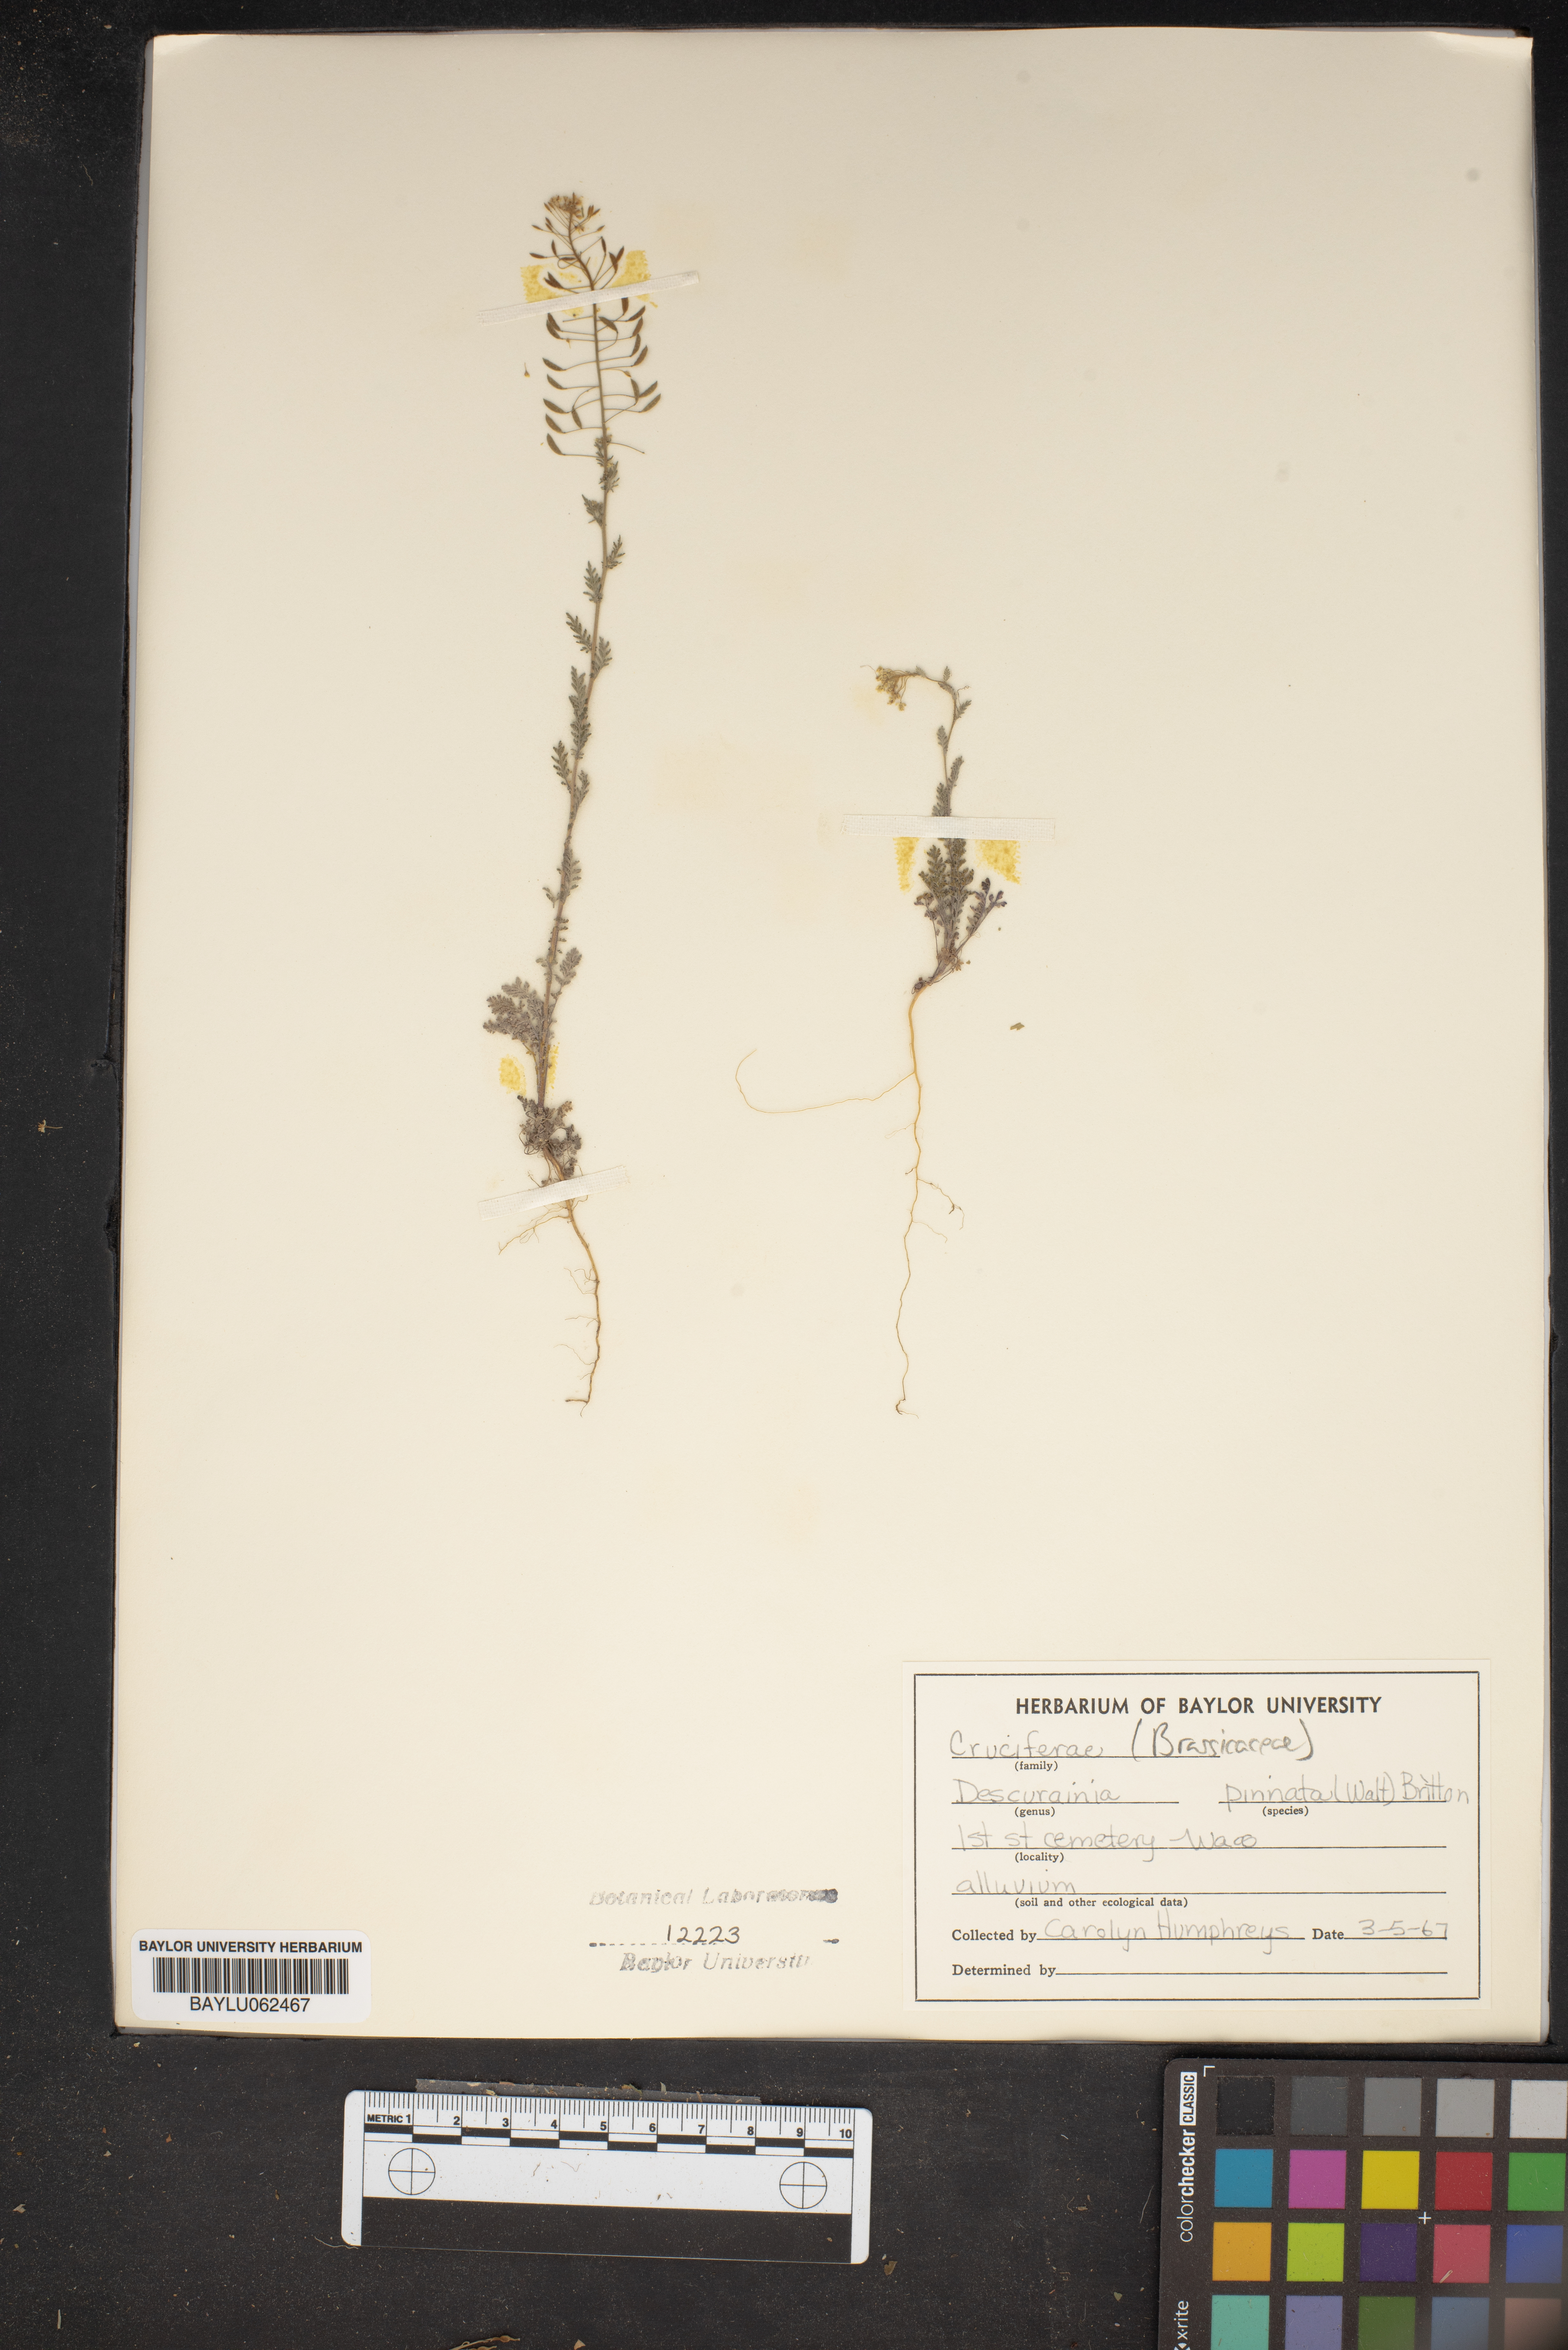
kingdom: Plantae
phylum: Tracheophyta
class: Magnoliopsida
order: Brassicales
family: Brassicaceae
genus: Descurainia
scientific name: Descurainia pinnata
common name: Western tansy mustard
